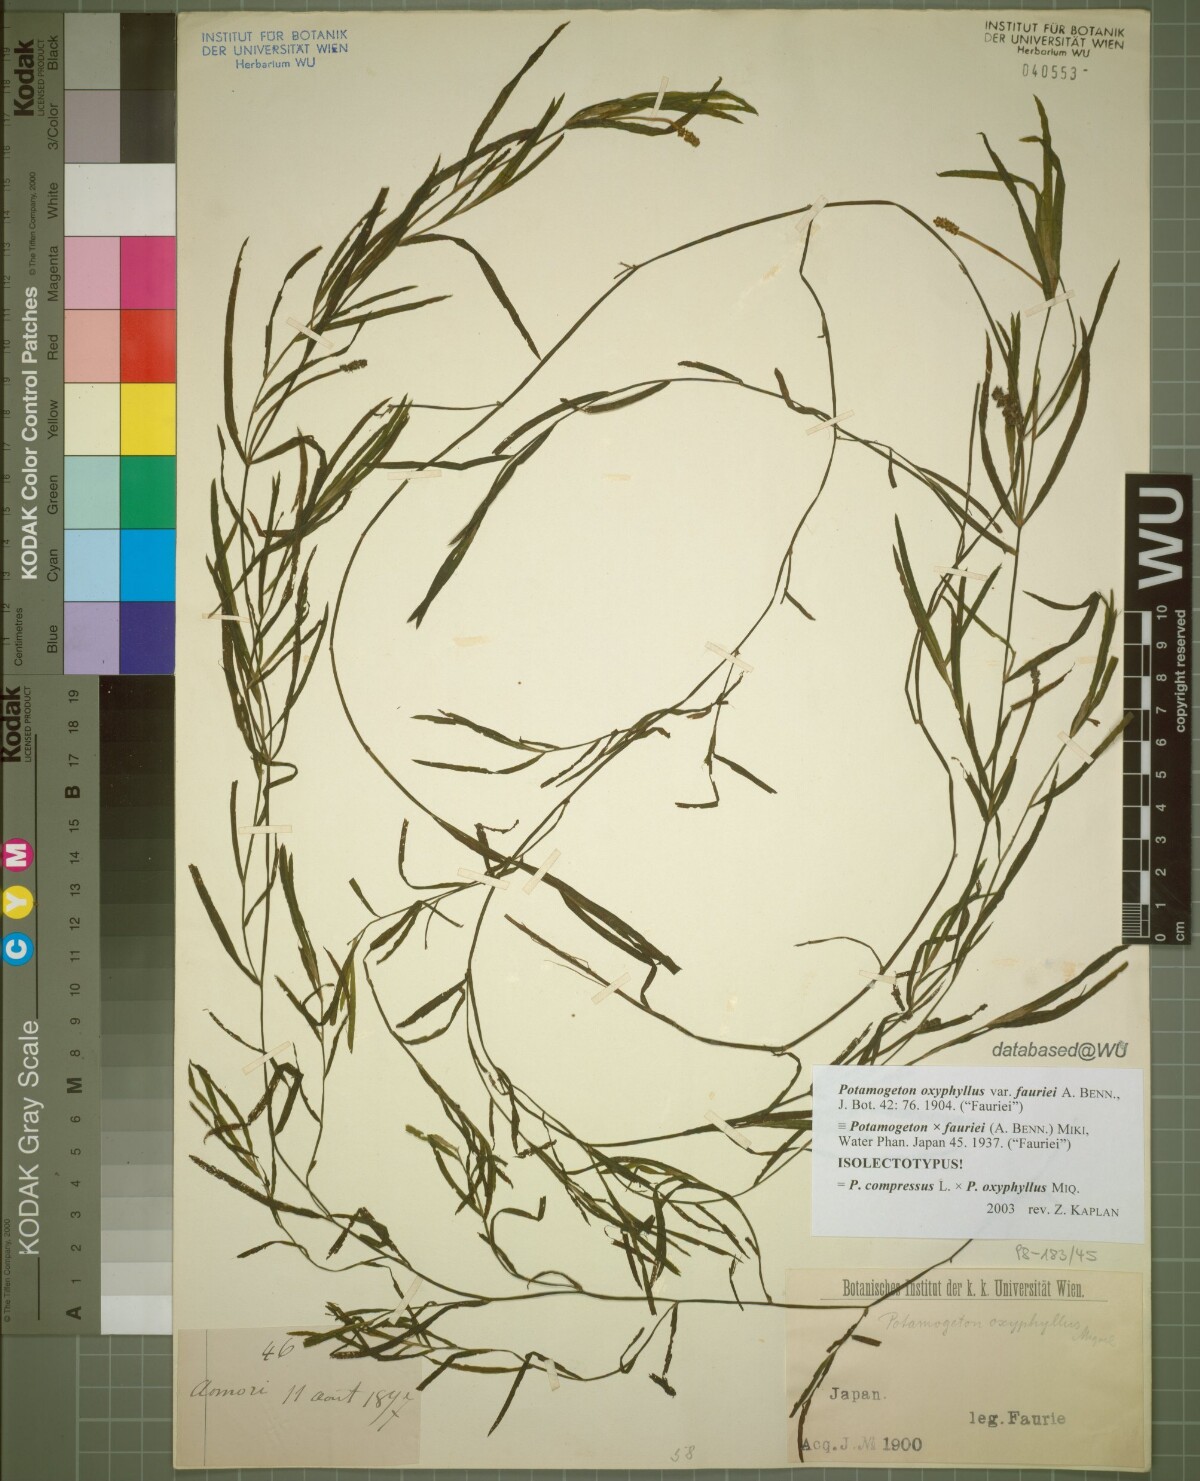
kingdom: Plantae
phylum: Tracheophyta
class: Liliopsida
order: Alismatales
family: Potamogetonaceae
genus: Potamogeton
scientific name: Potamogeton fauriei
